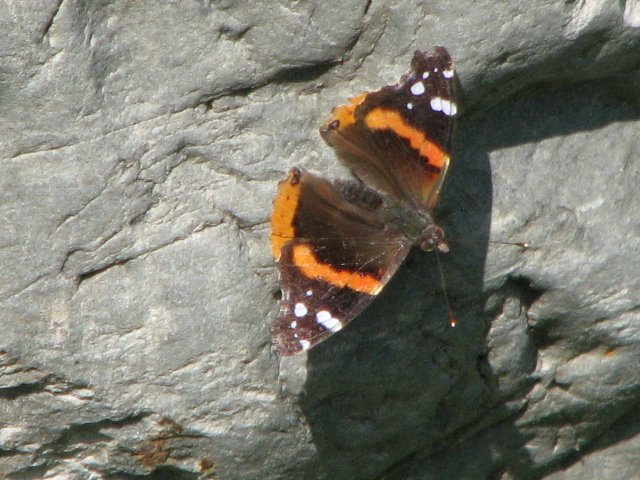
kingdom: Animalia
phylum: Arthropoda
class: Insecta
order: Lepidoptera
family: Nymphalidae
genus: Vanessa
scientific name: Vanessa atalanta
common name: Red Admiral
